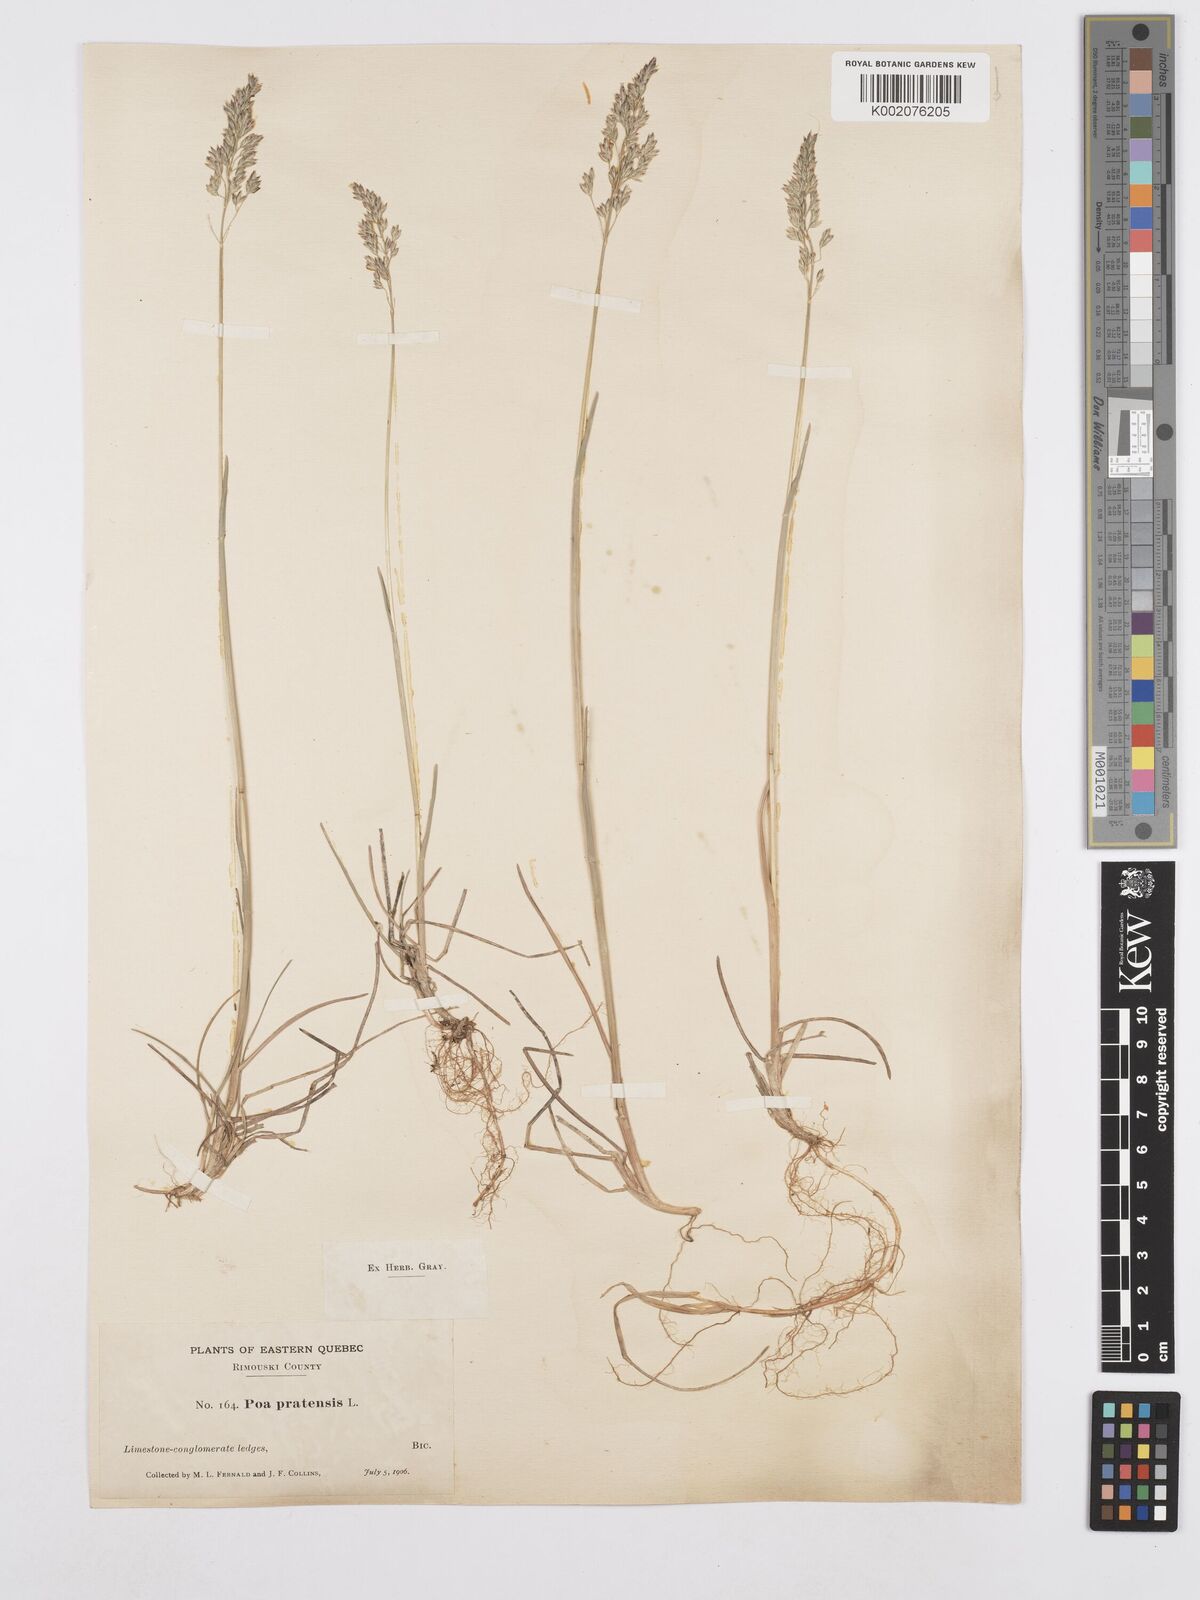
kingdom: Plantae
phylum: Tracheophyta
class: Liliopsida
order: Poales
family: Poaceae
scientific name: Poaceae
